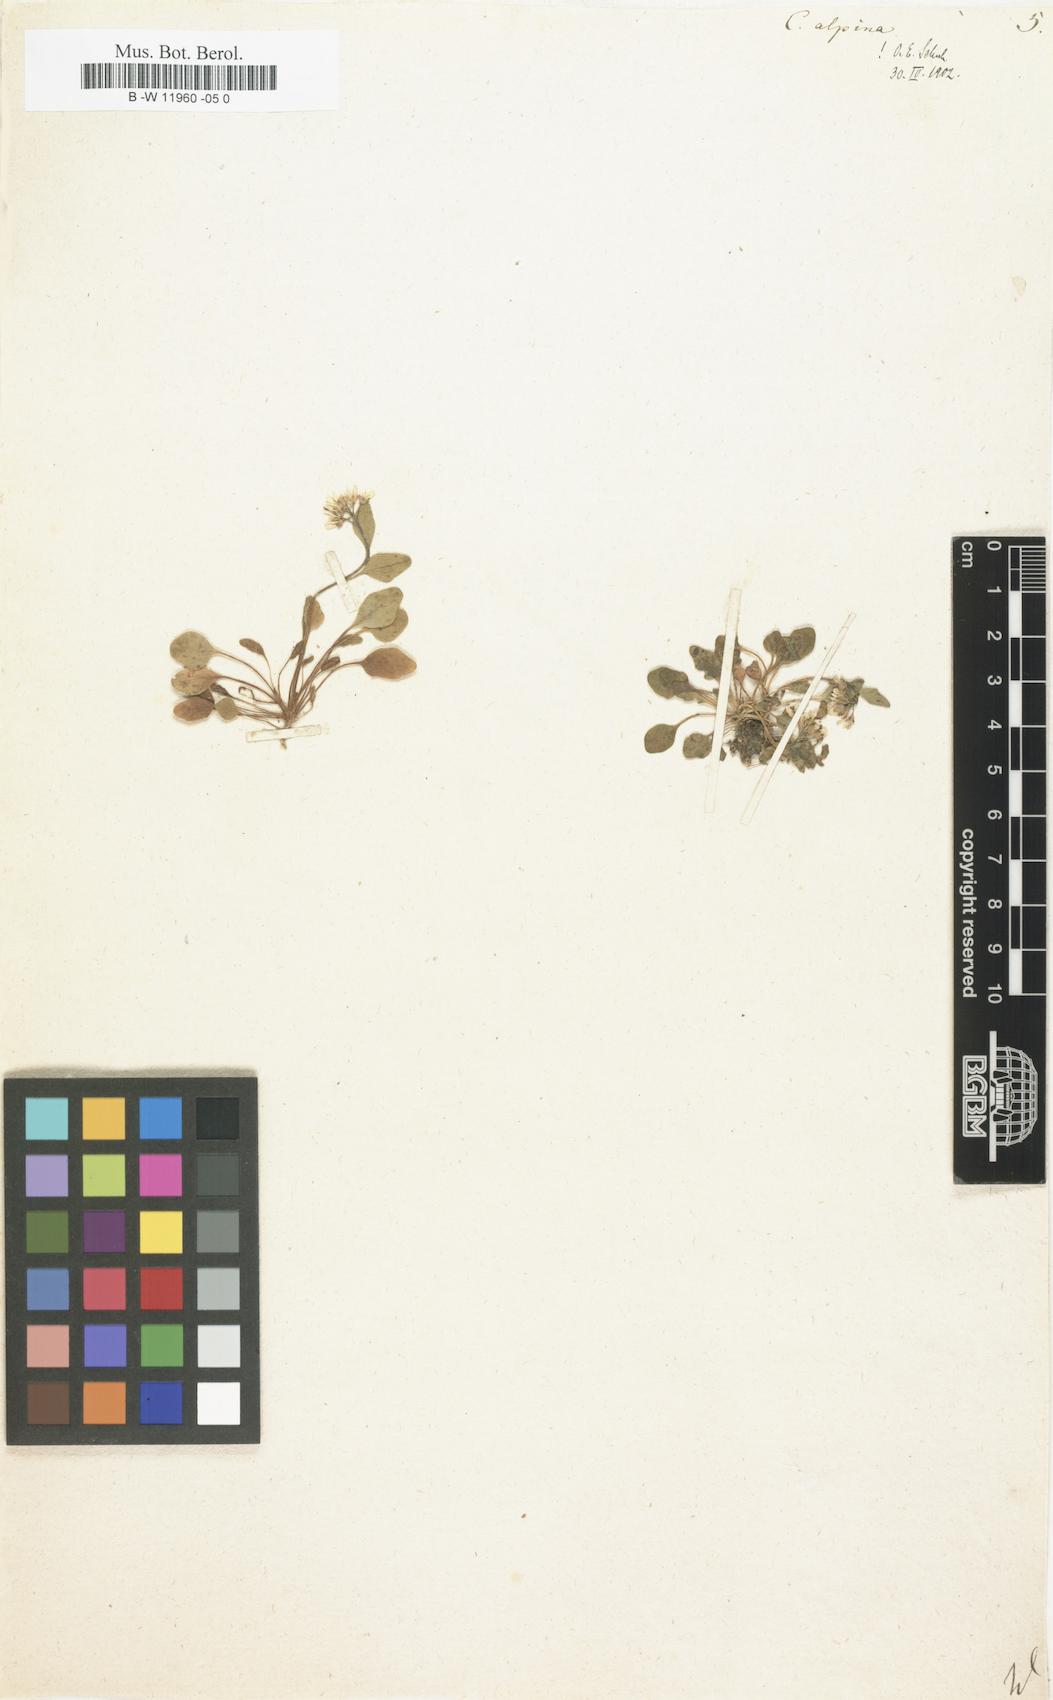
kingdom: Plantae
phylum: Tracheophyta
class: Magnoliopsida
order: Brassicales
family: Brassicaceae
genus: Cardamine
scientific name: Cardamine bellidifolia
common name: Alpine bittercress
